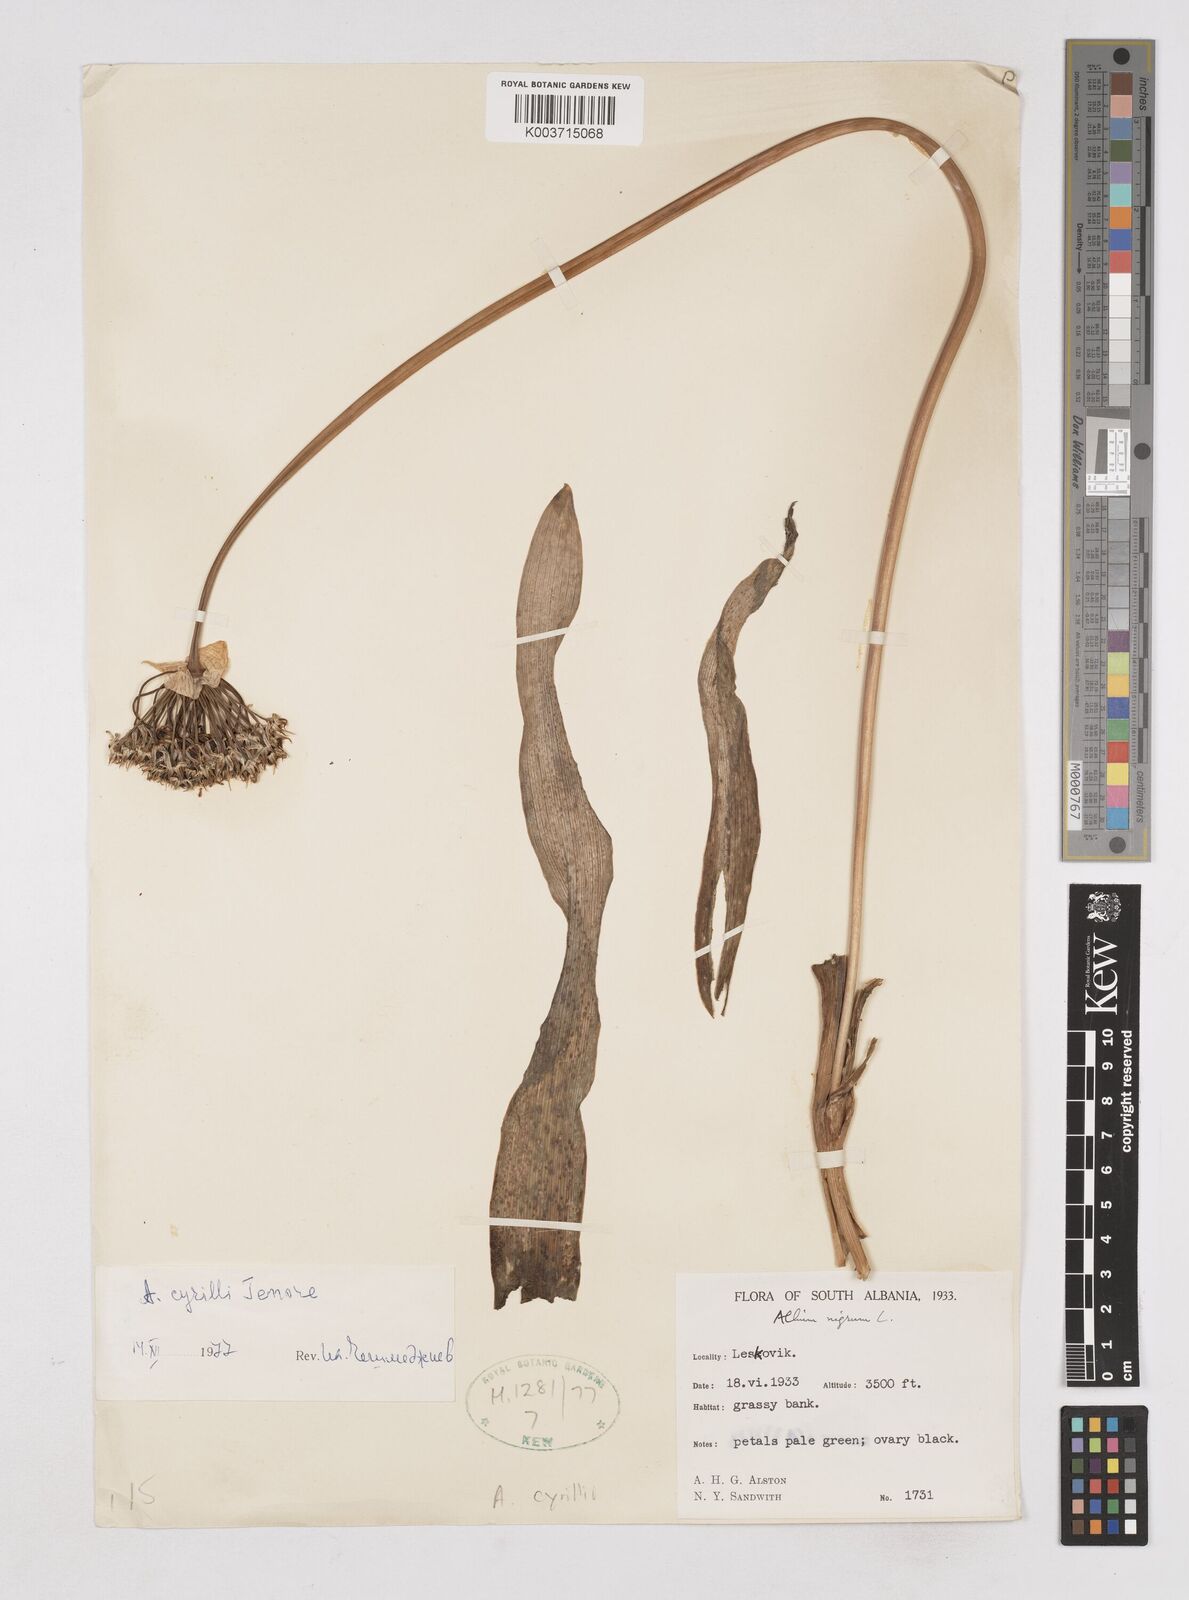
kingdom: Plantae
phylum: Tracheophyta
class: Liliopsida
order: Asparagales
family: Amaryllidaceae
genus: Allium
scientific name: Allium cyrilli
